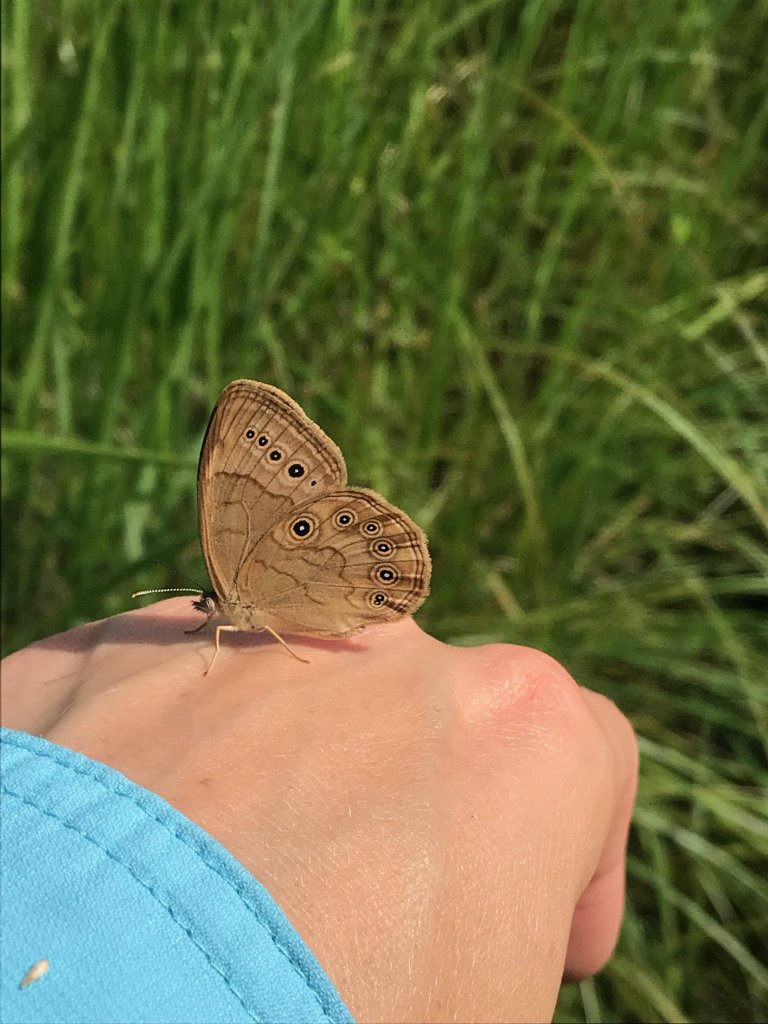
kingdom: Animalia
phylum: Arthropoda
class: Insecta
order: Lepidoptera
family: Nymphalidae
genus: Lethe
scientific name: Lethe eurydice
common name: Eyed Brown
